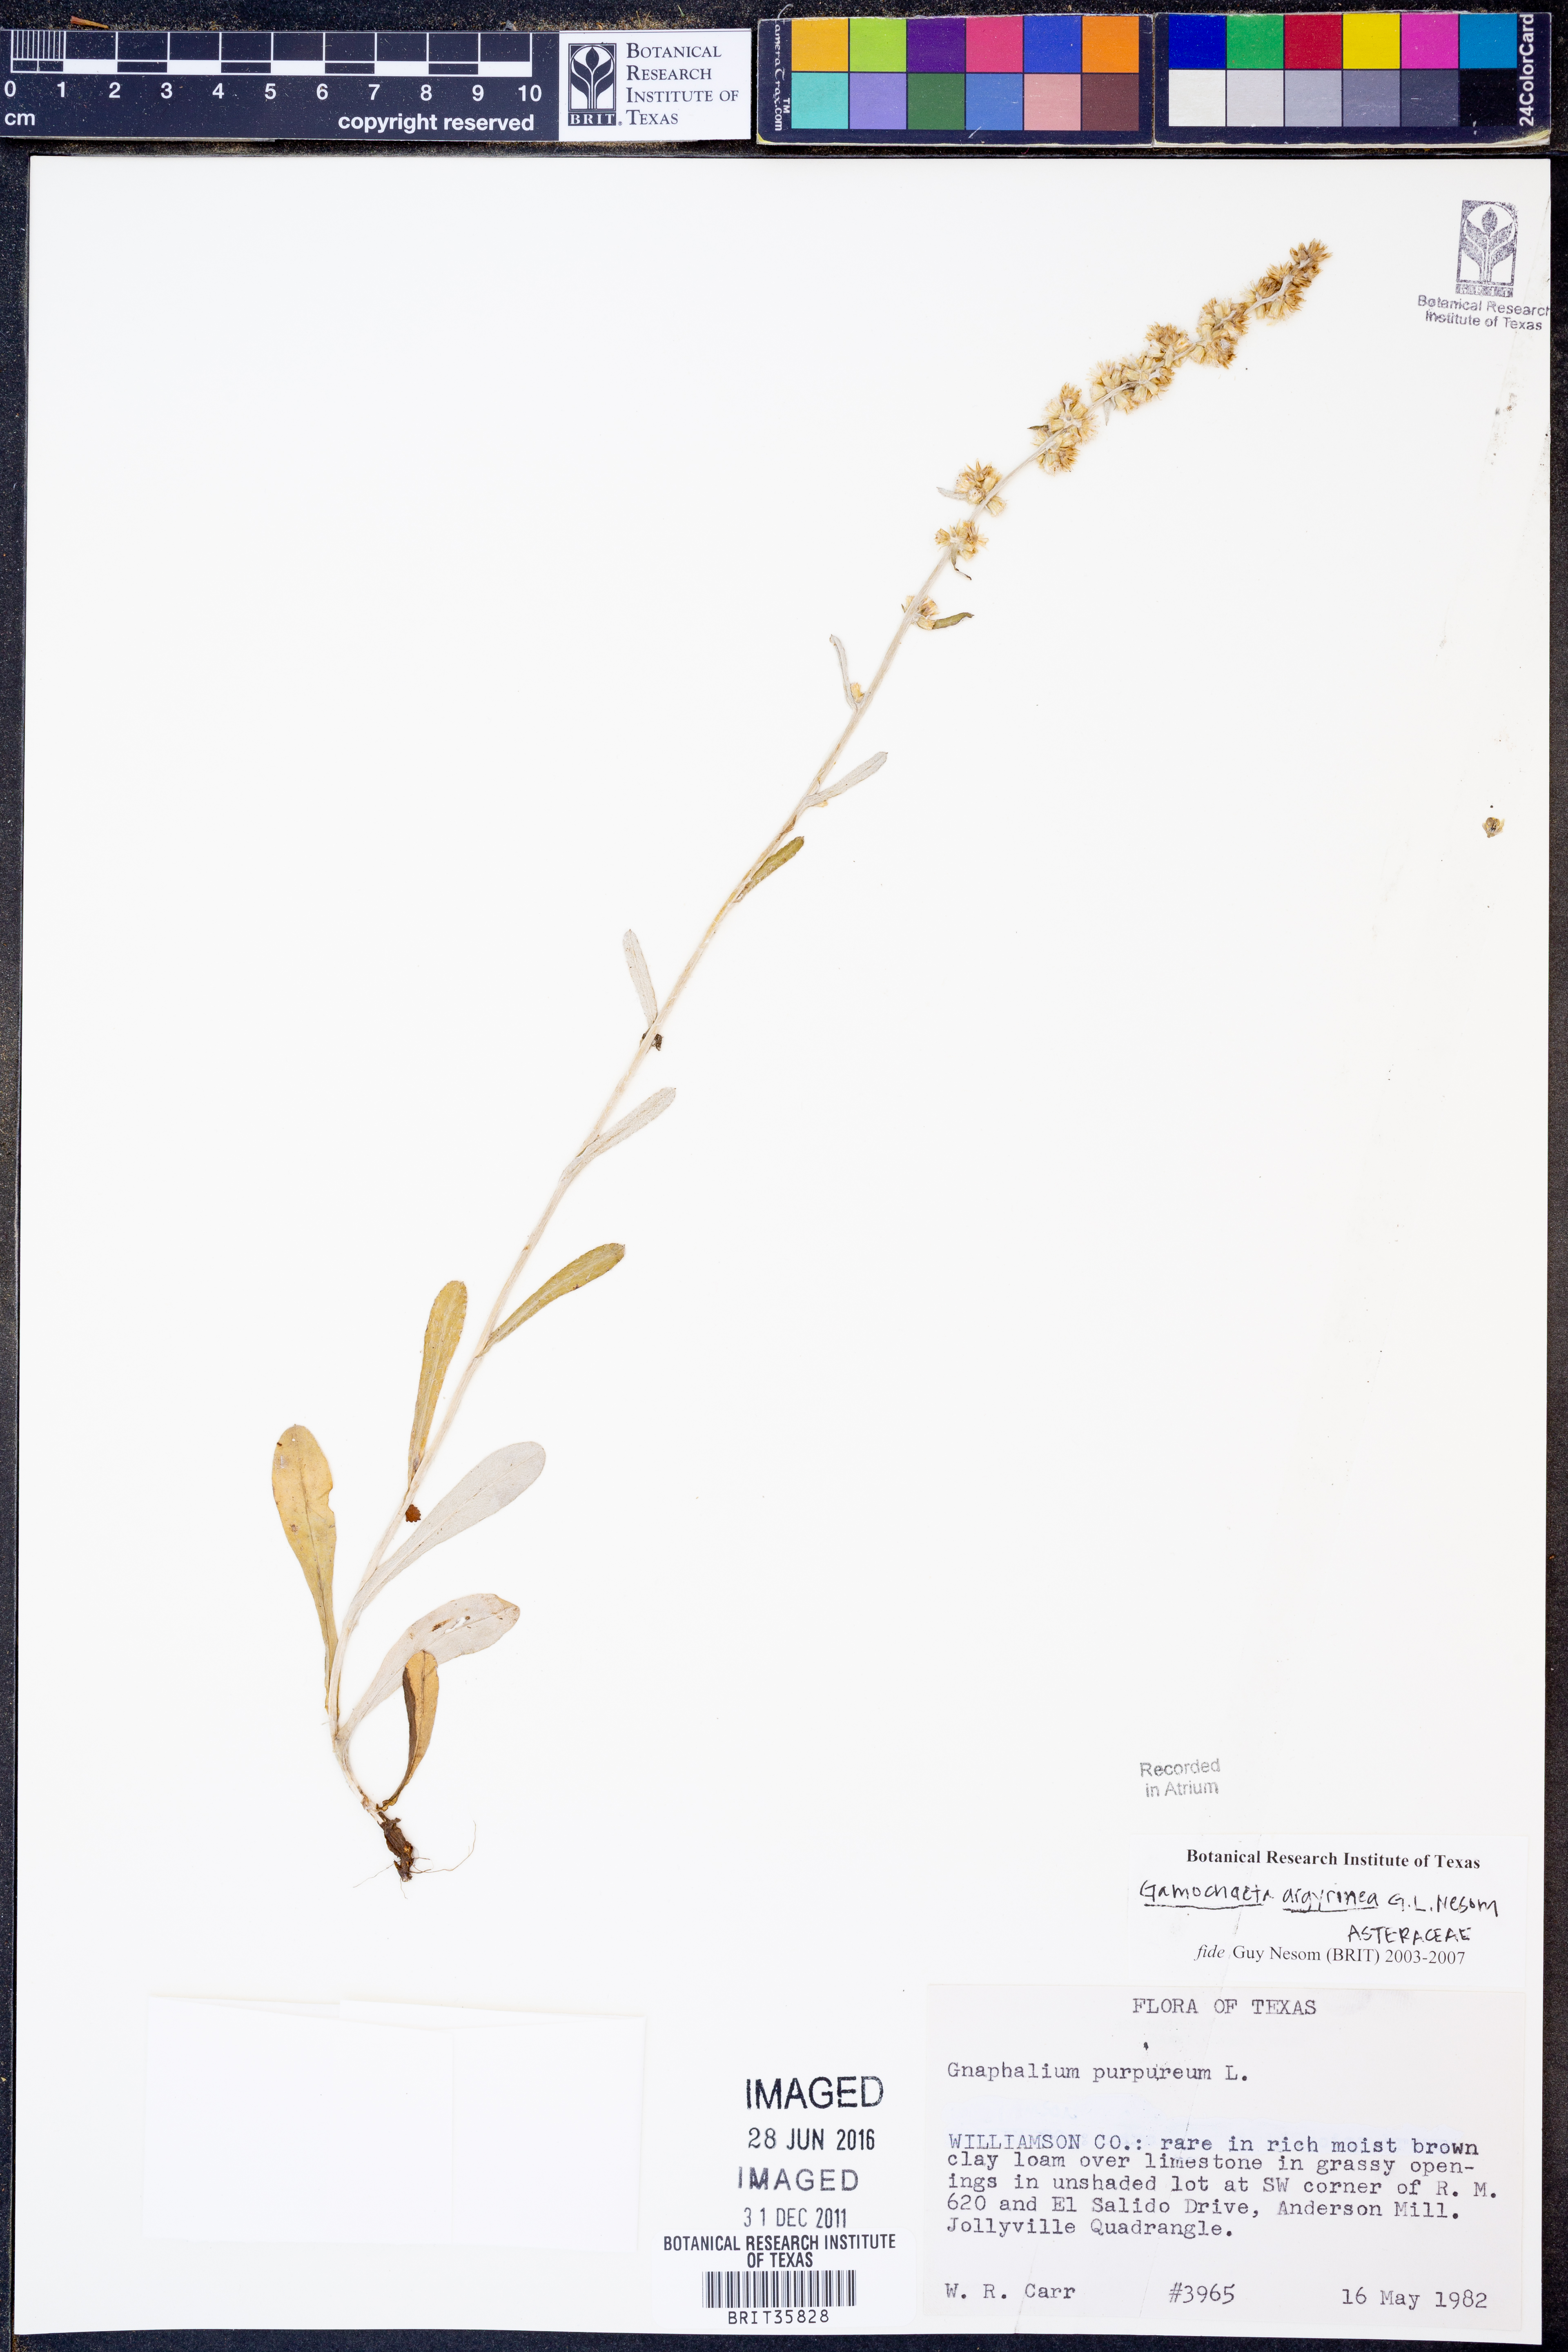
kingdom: Plantae
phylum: Tracheophyta
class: Magnoliopsida
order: Asterales
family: Asteraceae
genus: Gamochaeta
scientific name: Gamochaeta argyrinea
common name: Silvery cudweed
